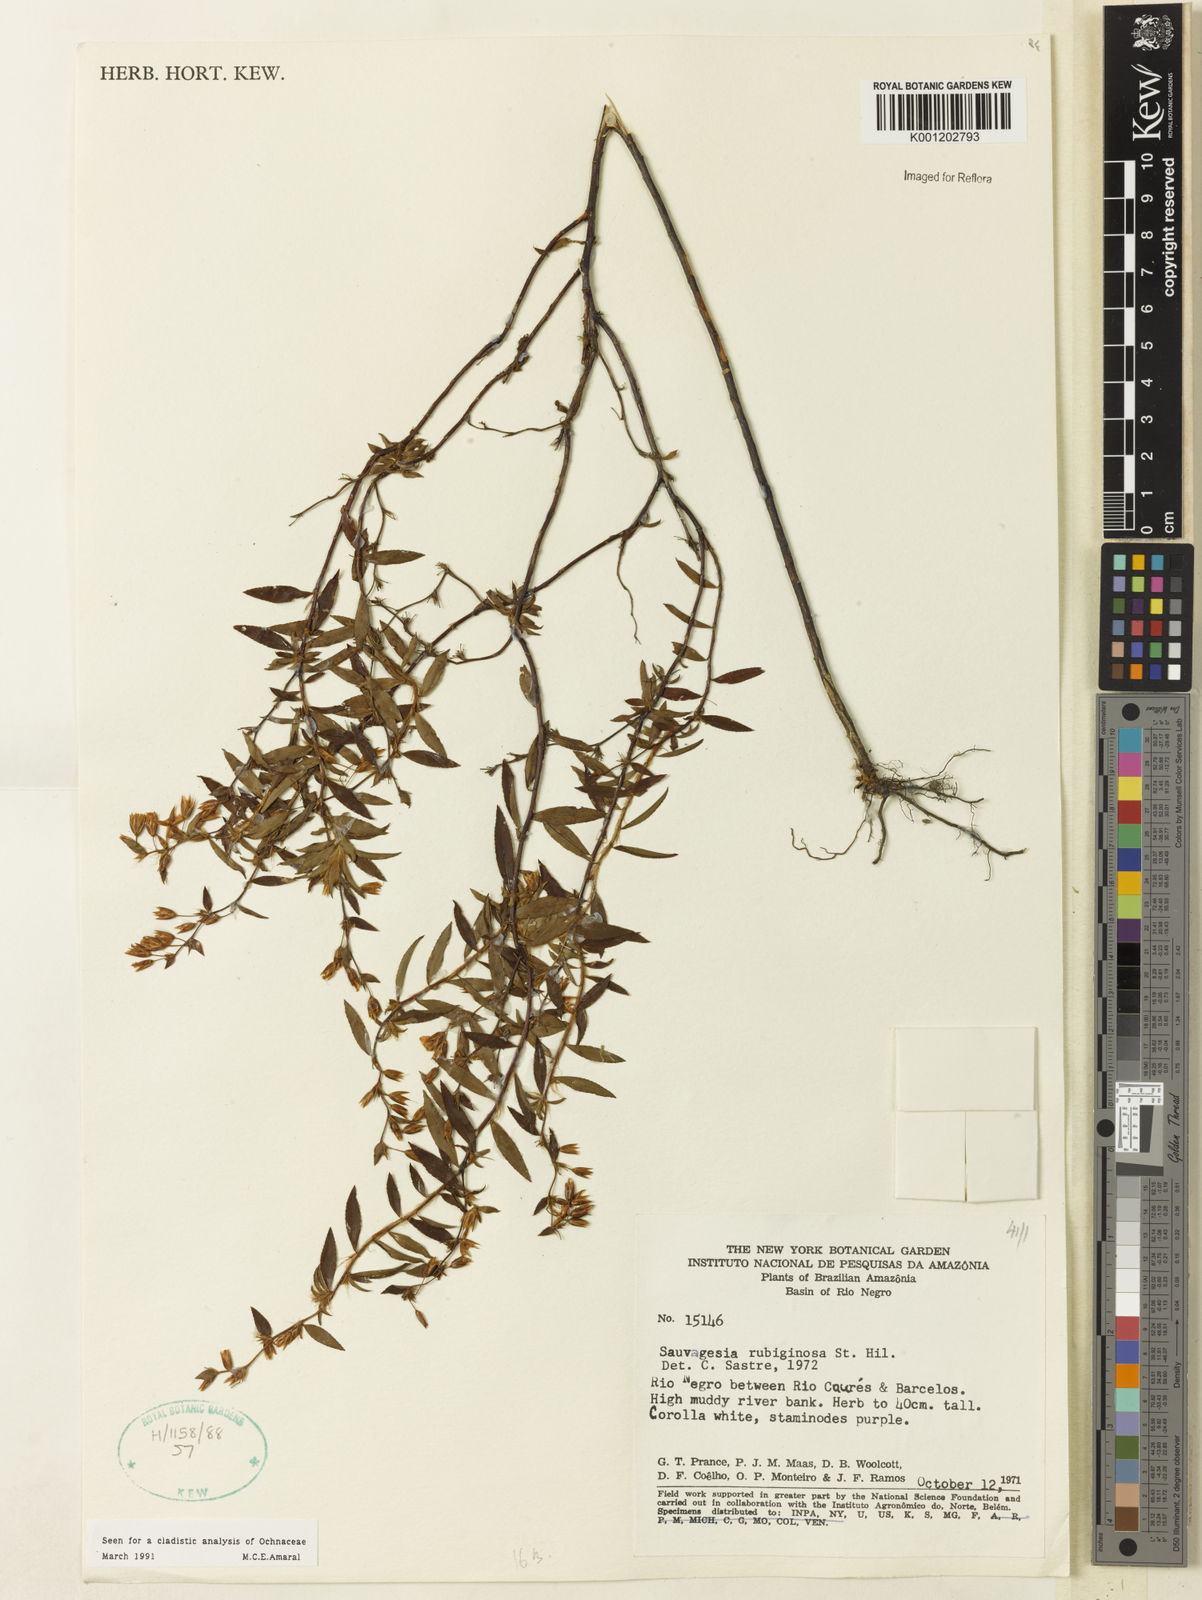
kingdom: Plantae
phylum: Tracheophyta
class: Magnoliopsida
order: Malpighiales
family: Ochnaceae
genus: Sauvagesia
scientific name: Sauvagesia rubiginosa
